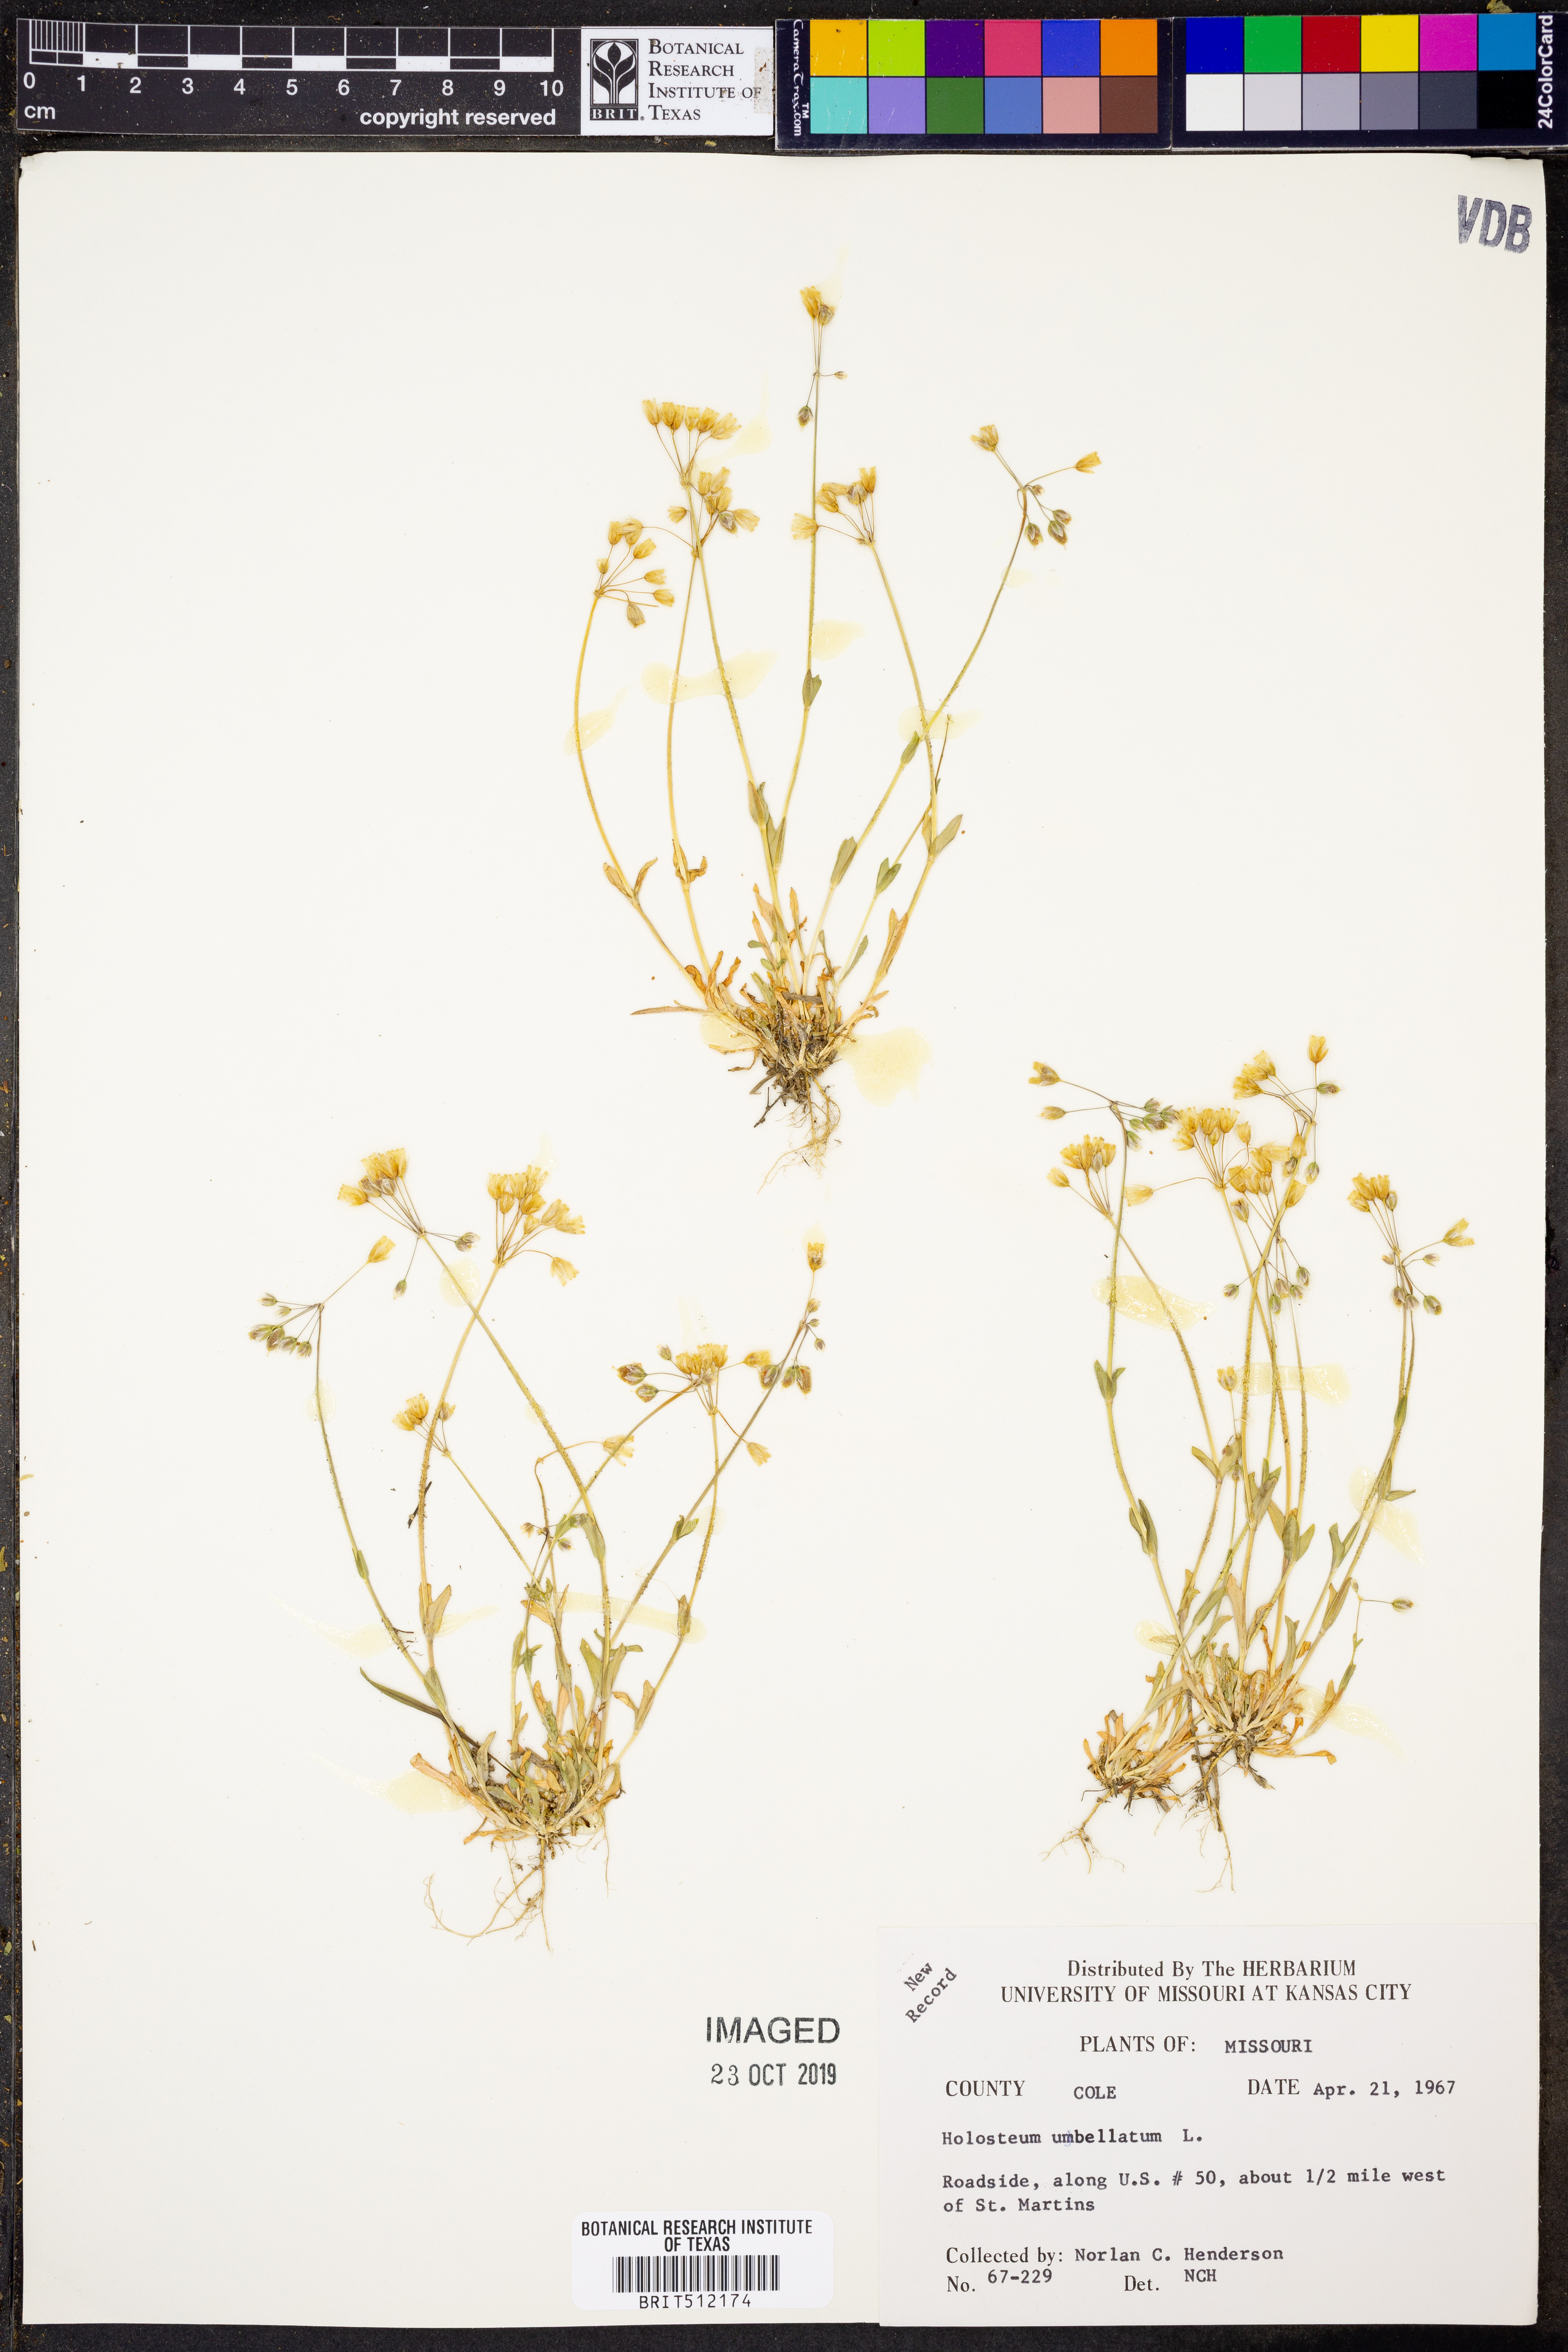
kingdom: Plantae
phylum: Tracheophyta
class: Magnoliopsida
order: Caryophyllales
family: Caryophyllaceae
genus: Holosteum
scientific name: Holosteum umbellatum
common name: Jagged chickweed
